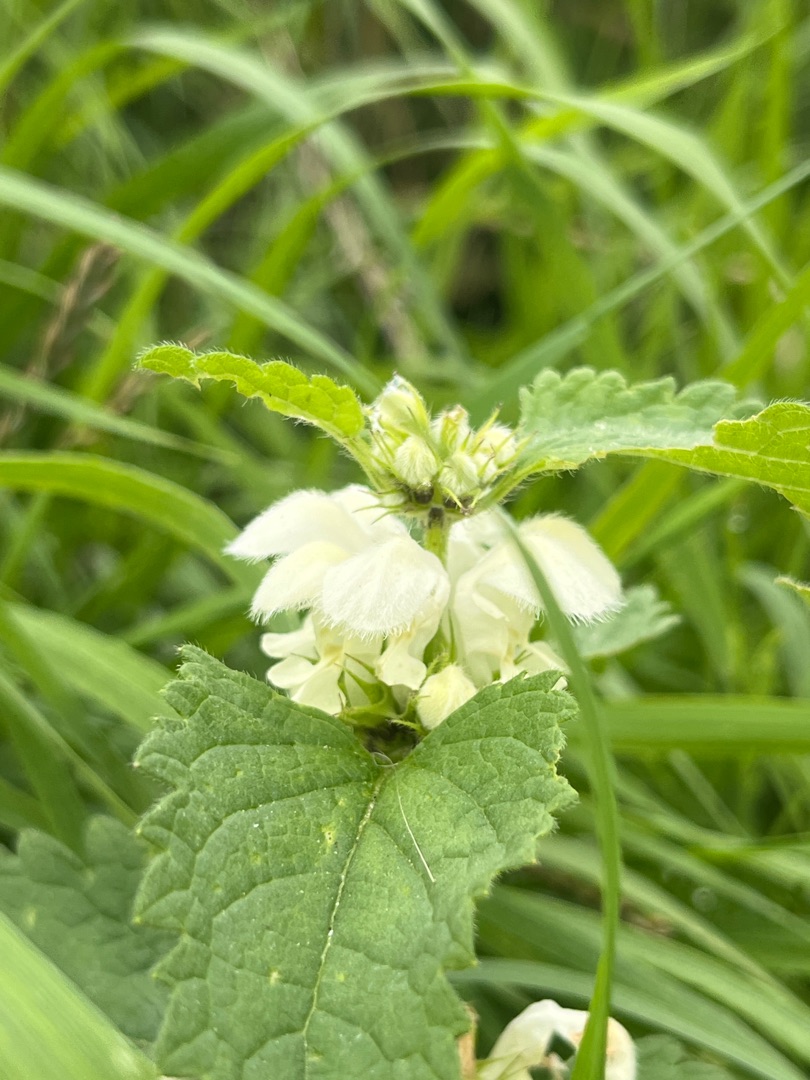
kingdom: Plantae
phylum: Tracheophyta
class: Magnoliopsida
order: Lamiales
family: Lamiaceae
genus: Lamium
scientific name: Lamium album
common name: Døvnælde
